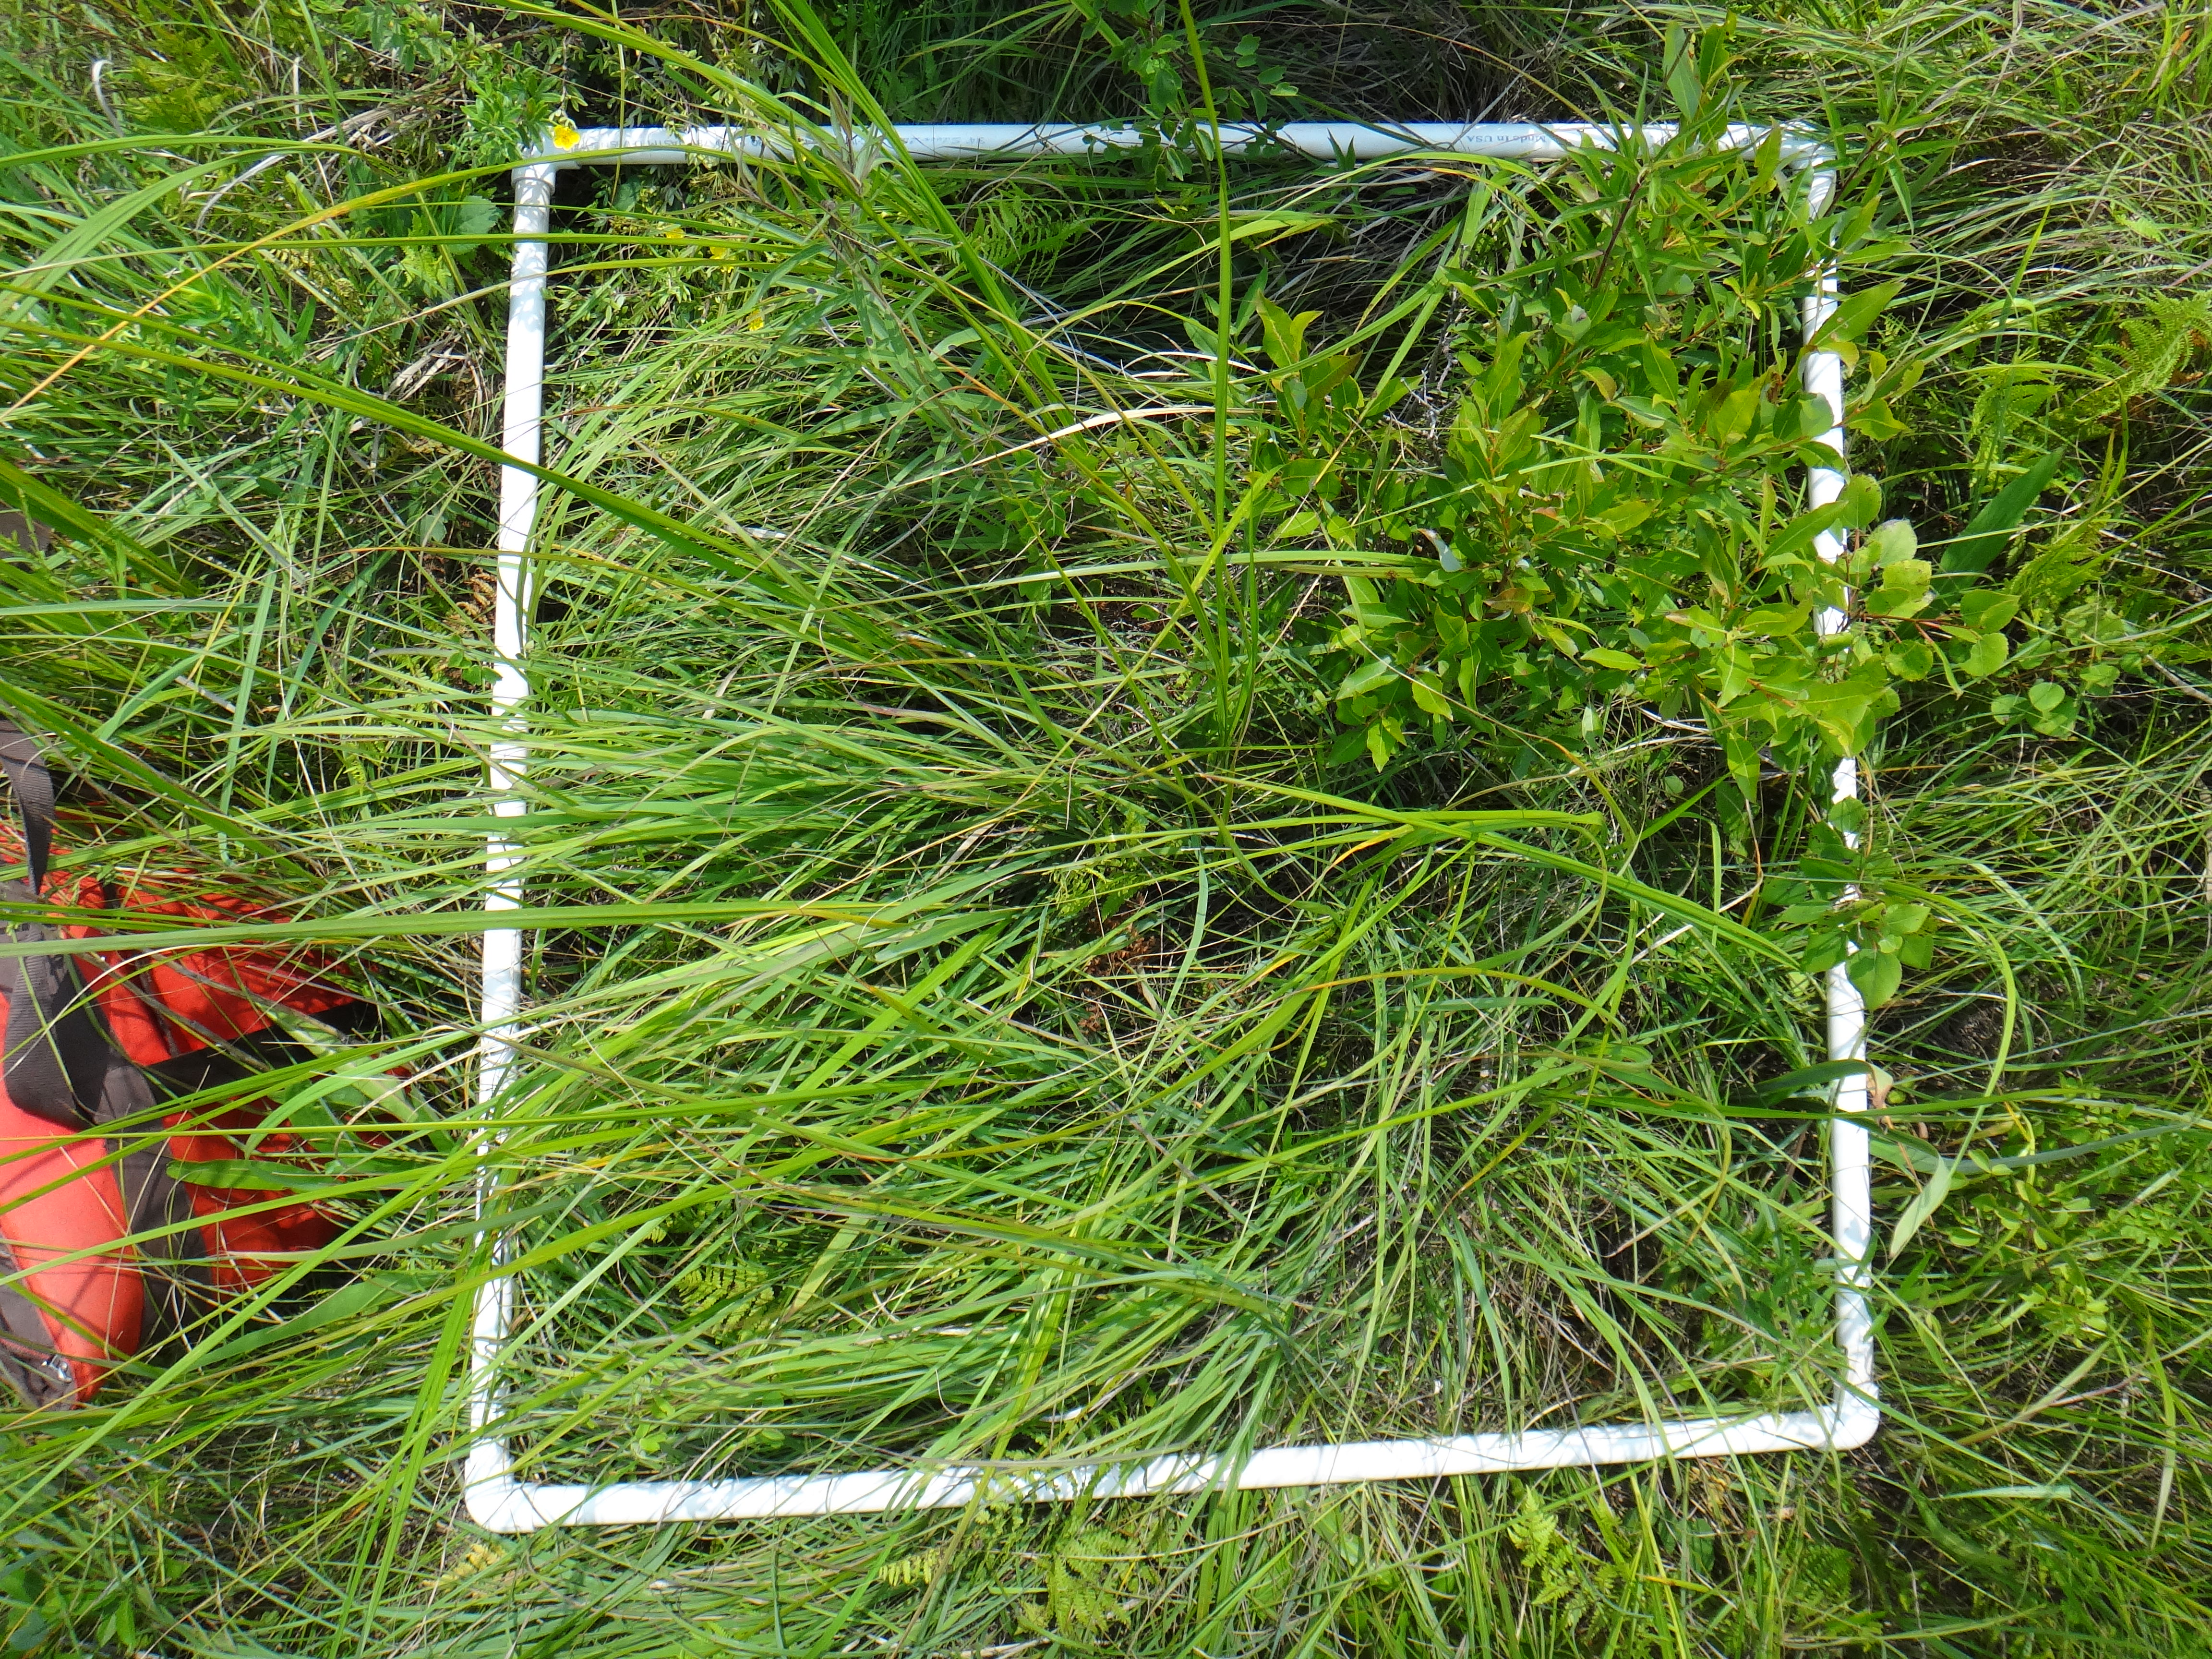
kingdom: Plantae
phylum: Tracheophyta
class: Liliopsida
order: Poales
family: Cyperaceae
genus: Carex
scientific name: Carex aurea
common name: Golden sedge
